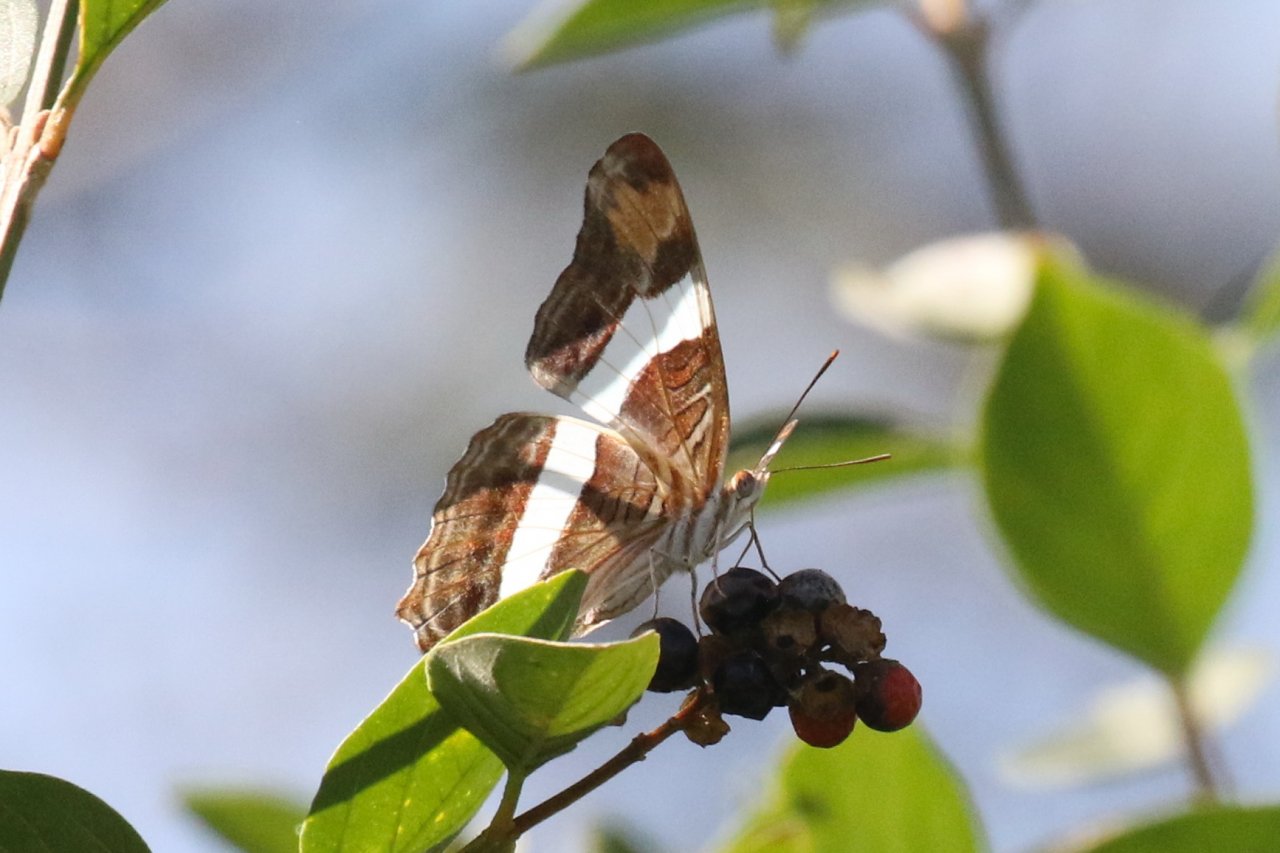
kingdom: Animalia
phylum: Arthropoda
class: Insecta
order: Lepidoptera
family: Nymphalidae
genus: Limenitis
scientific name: Limenitis fessonia
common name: Band-celled Sister
